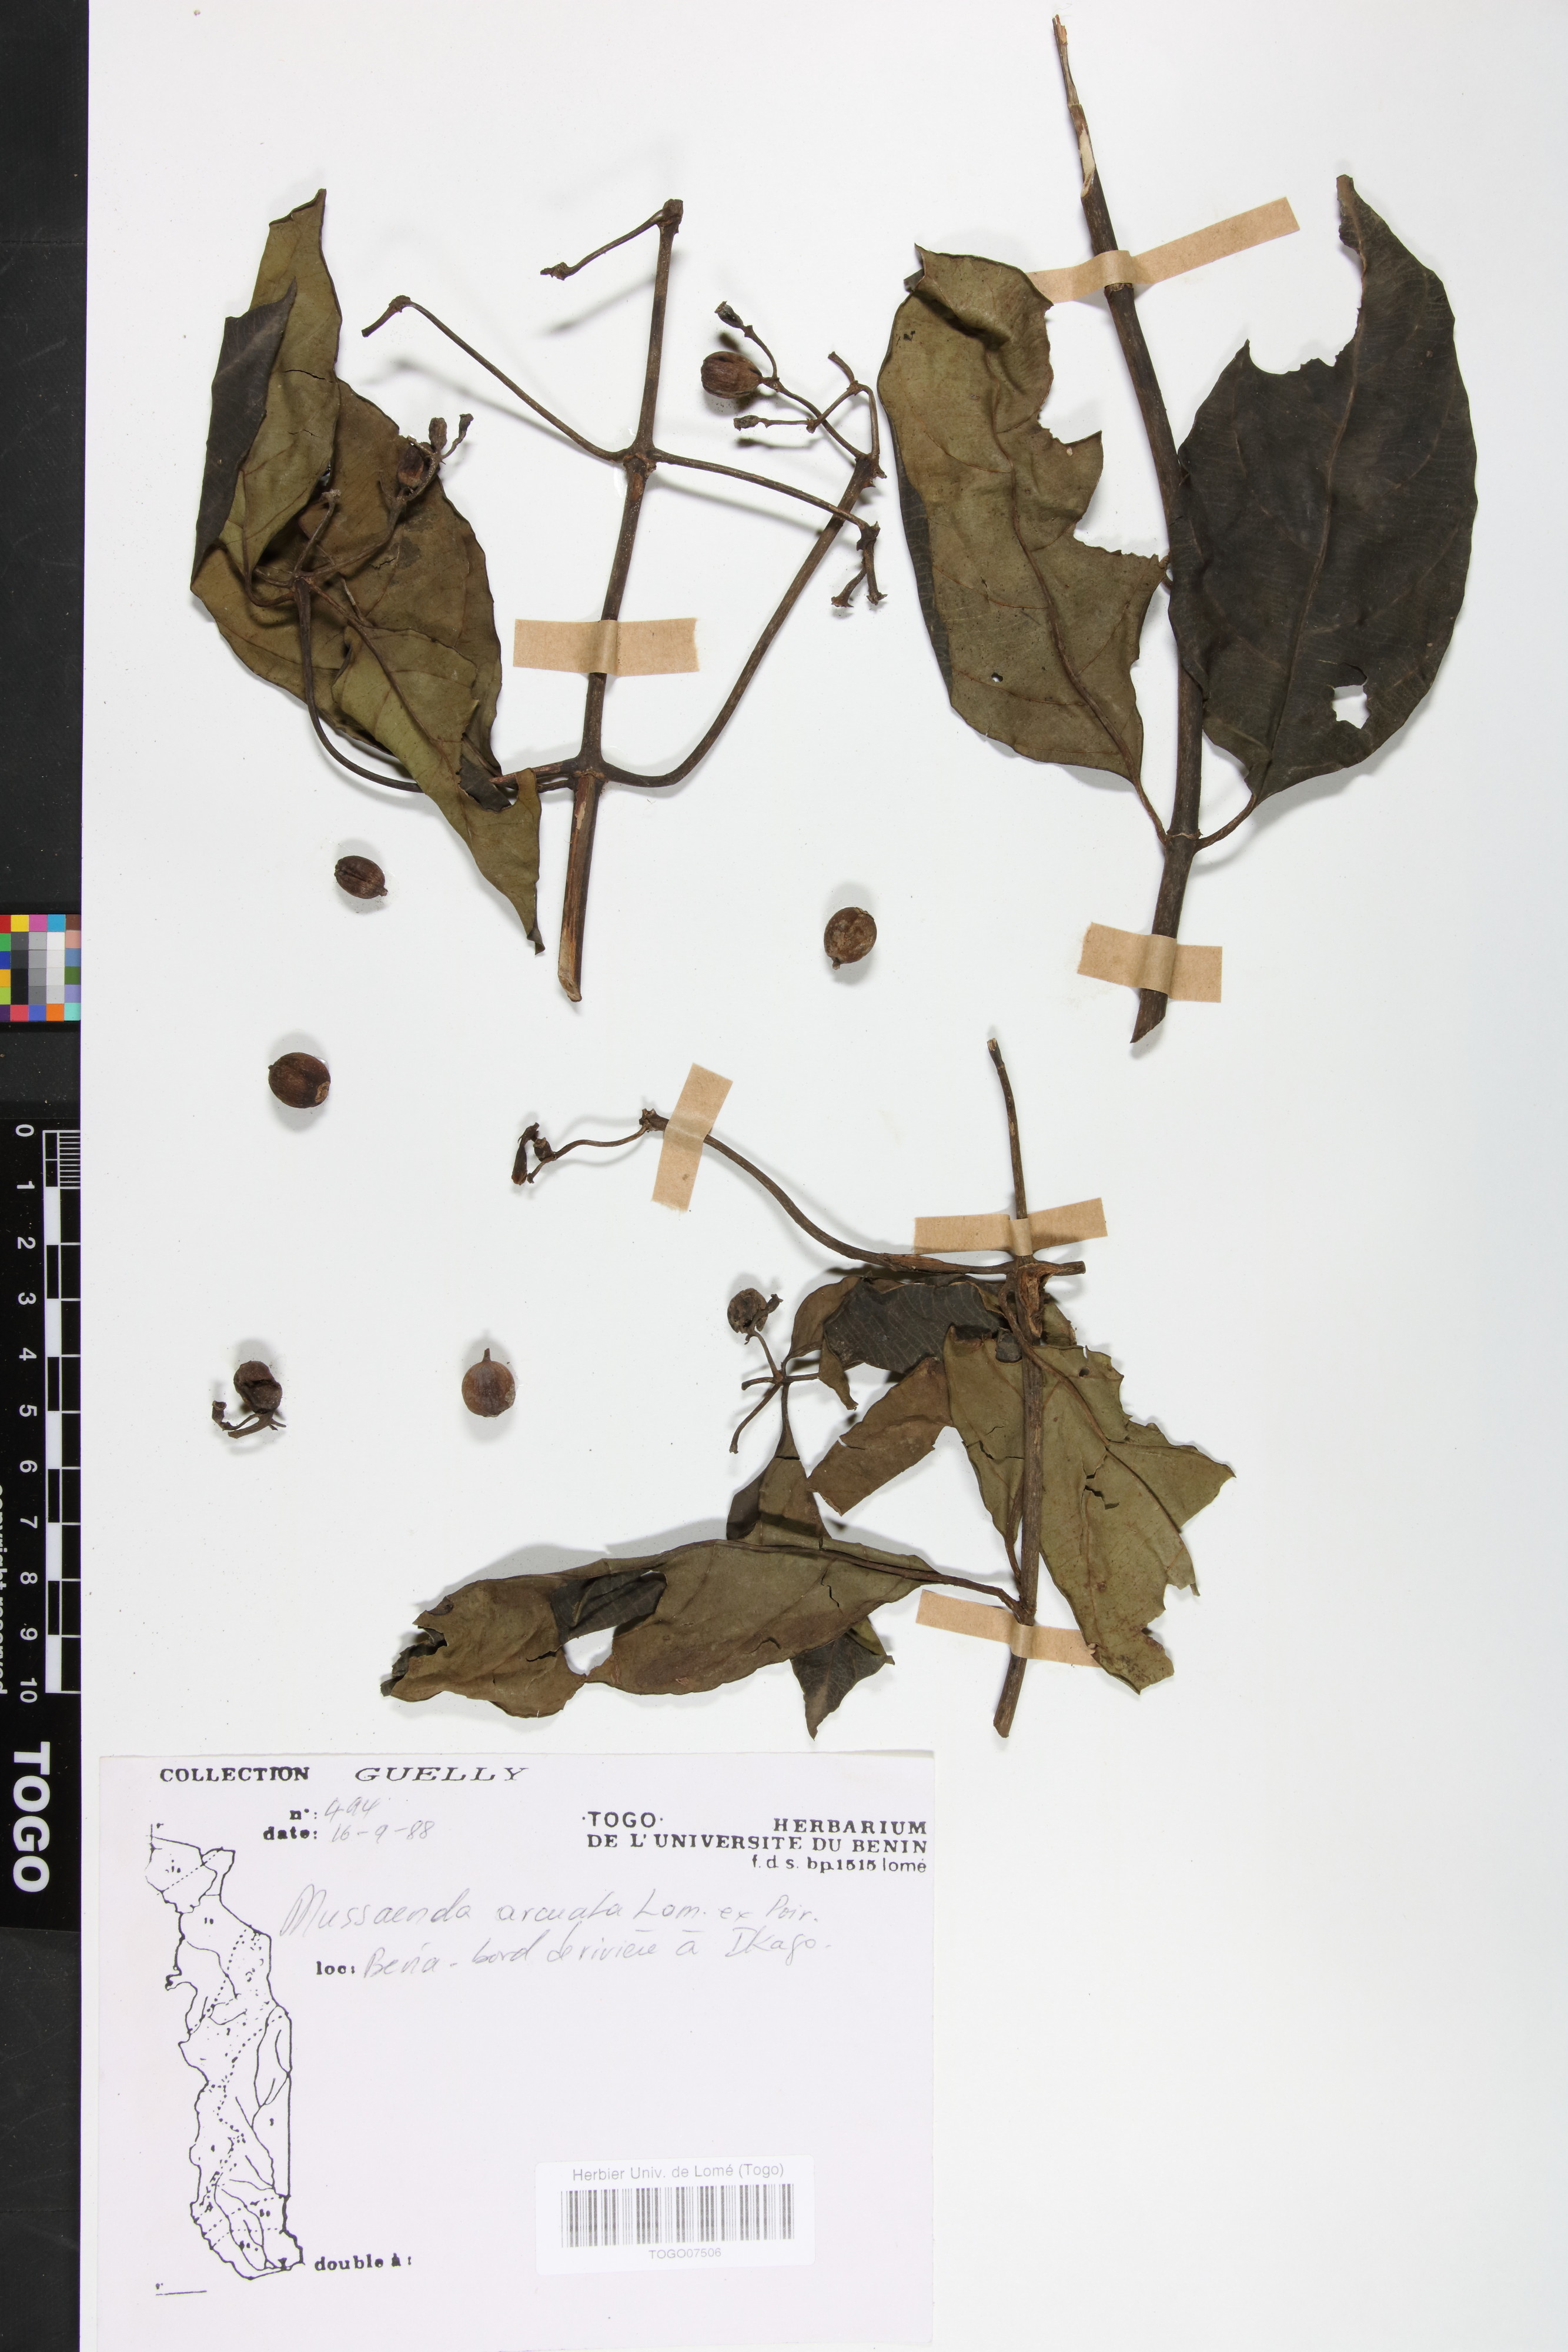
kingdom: Plantae
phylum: Tracheophyta
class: Magnoliopsida
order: Gentianales
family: Rubiaceae
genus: Mussaenda
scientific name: Mussaenda arcuata
